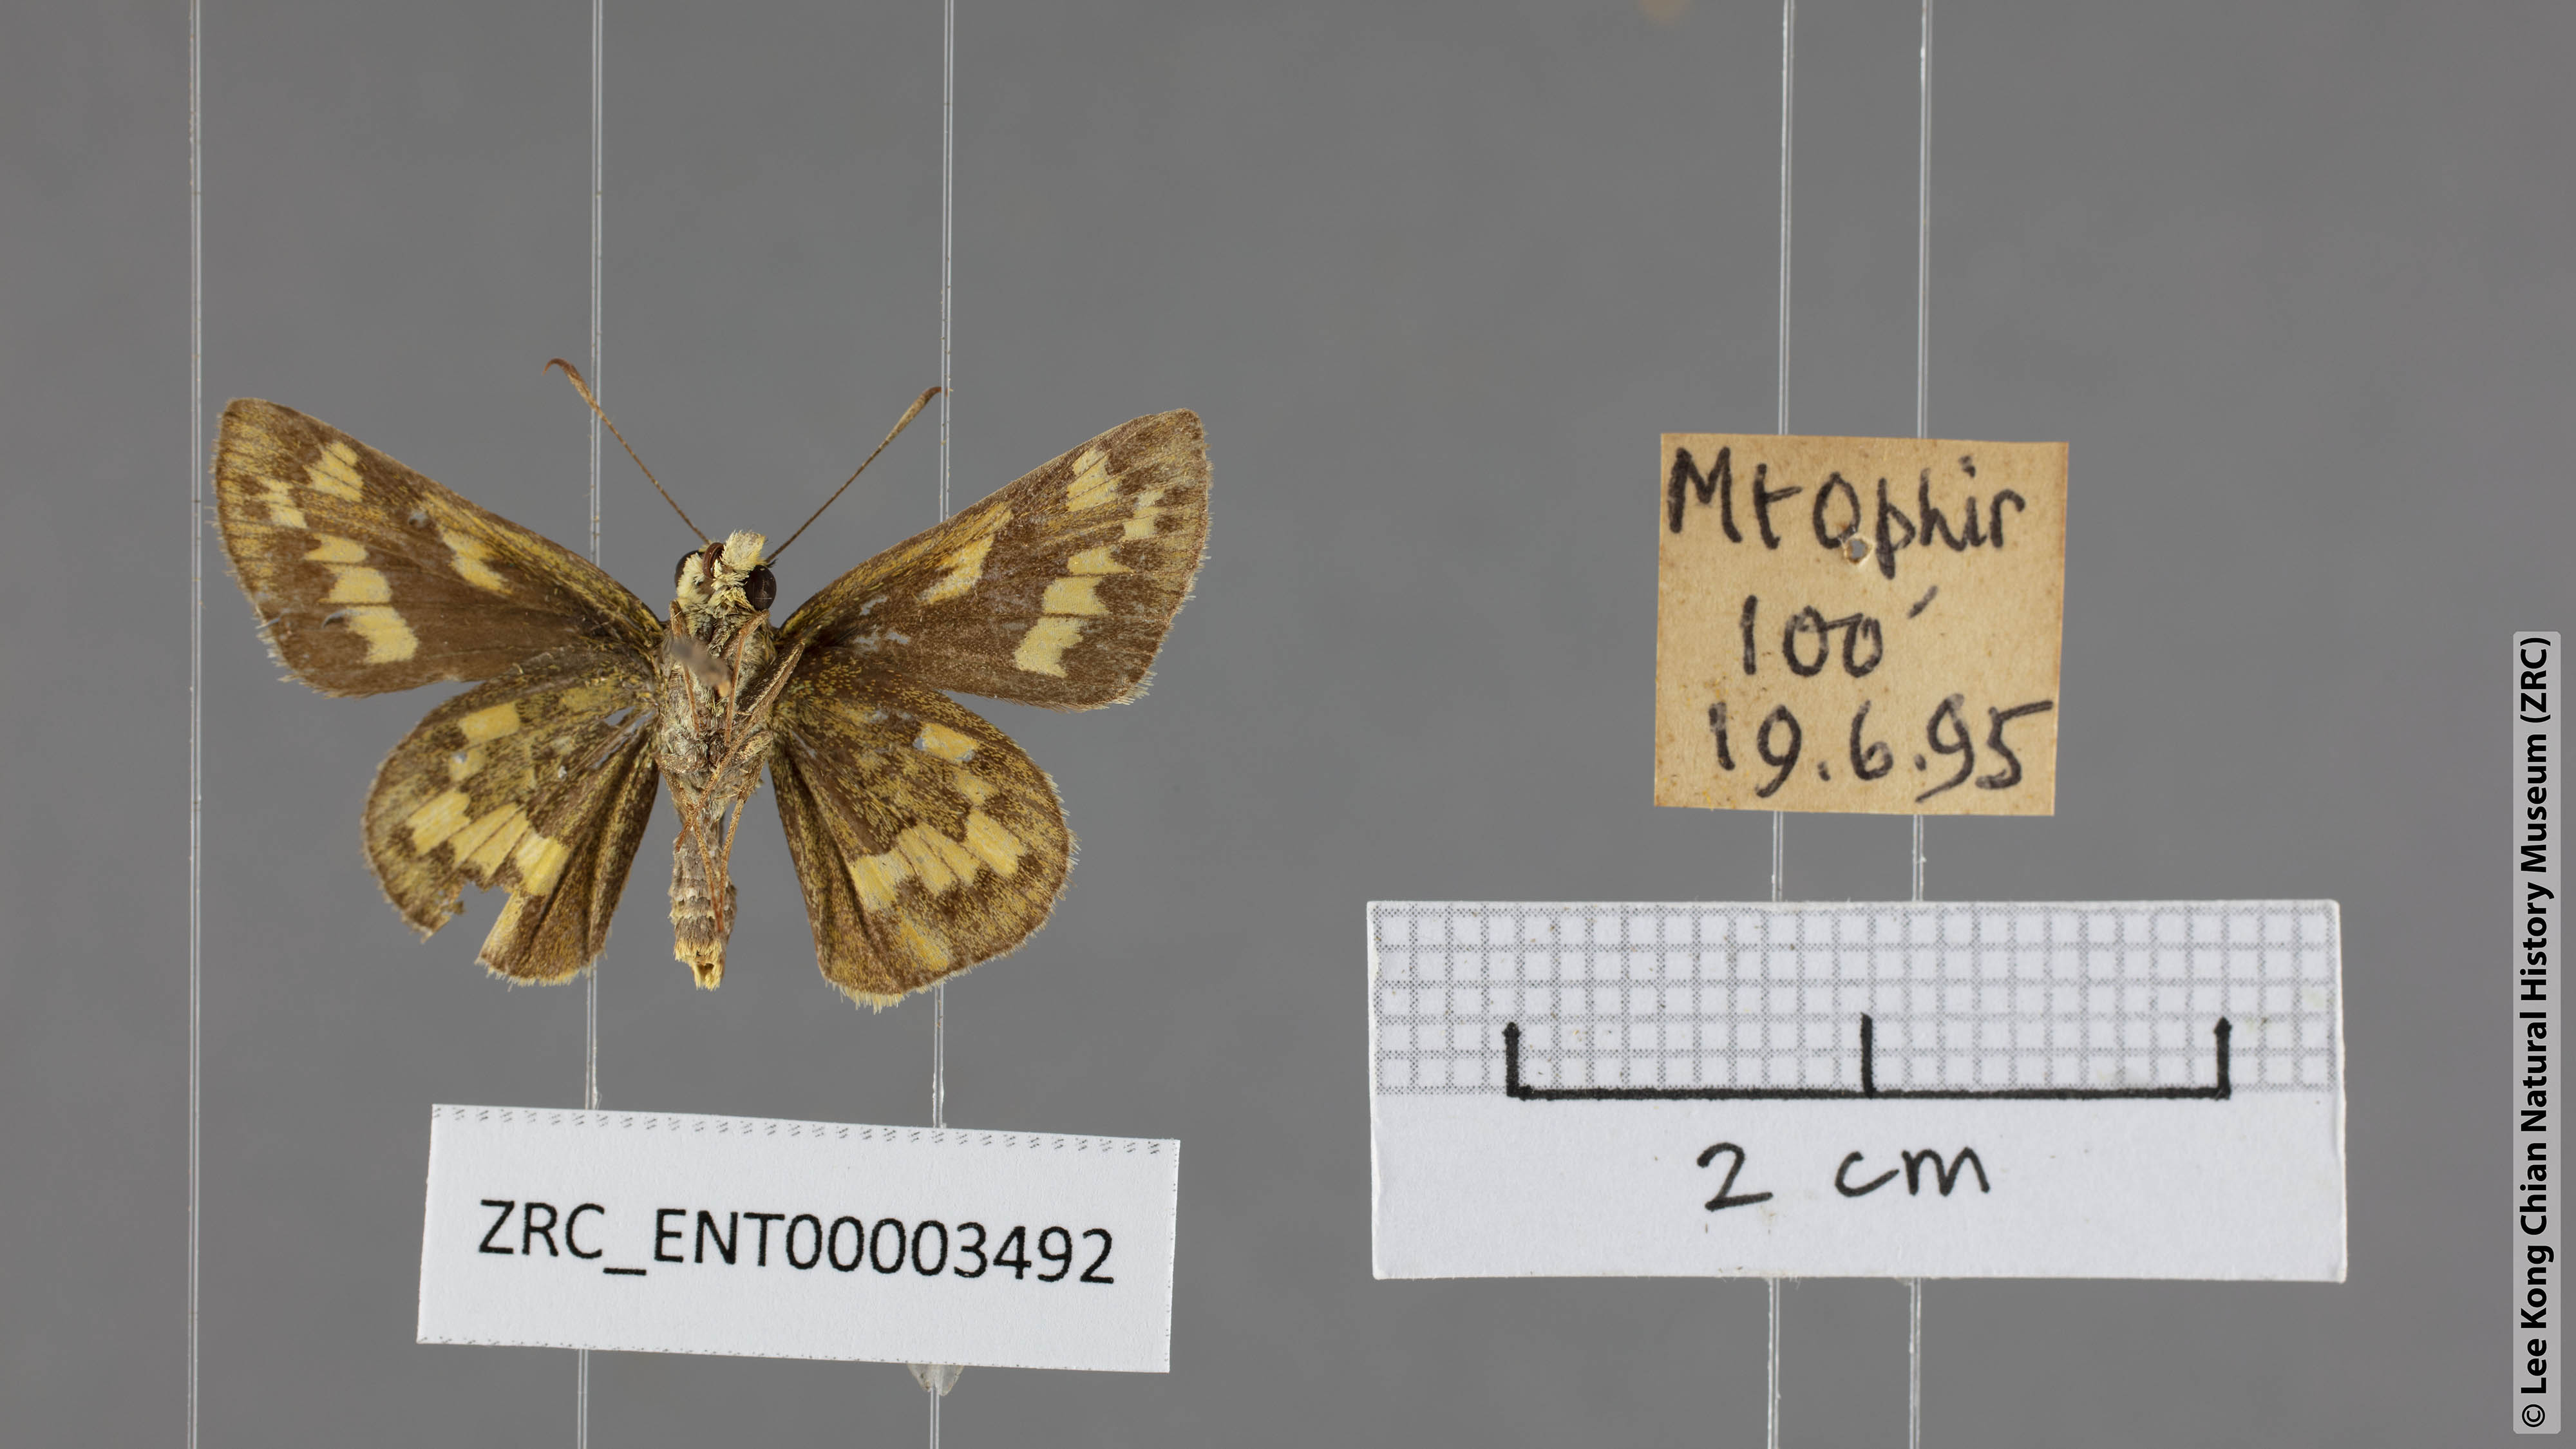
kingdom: Animalia
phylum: Arthropoda
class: Insecta
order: Lepidoptera
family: Hesperiidae
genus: Potanthus
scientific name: Potanthus trachala
